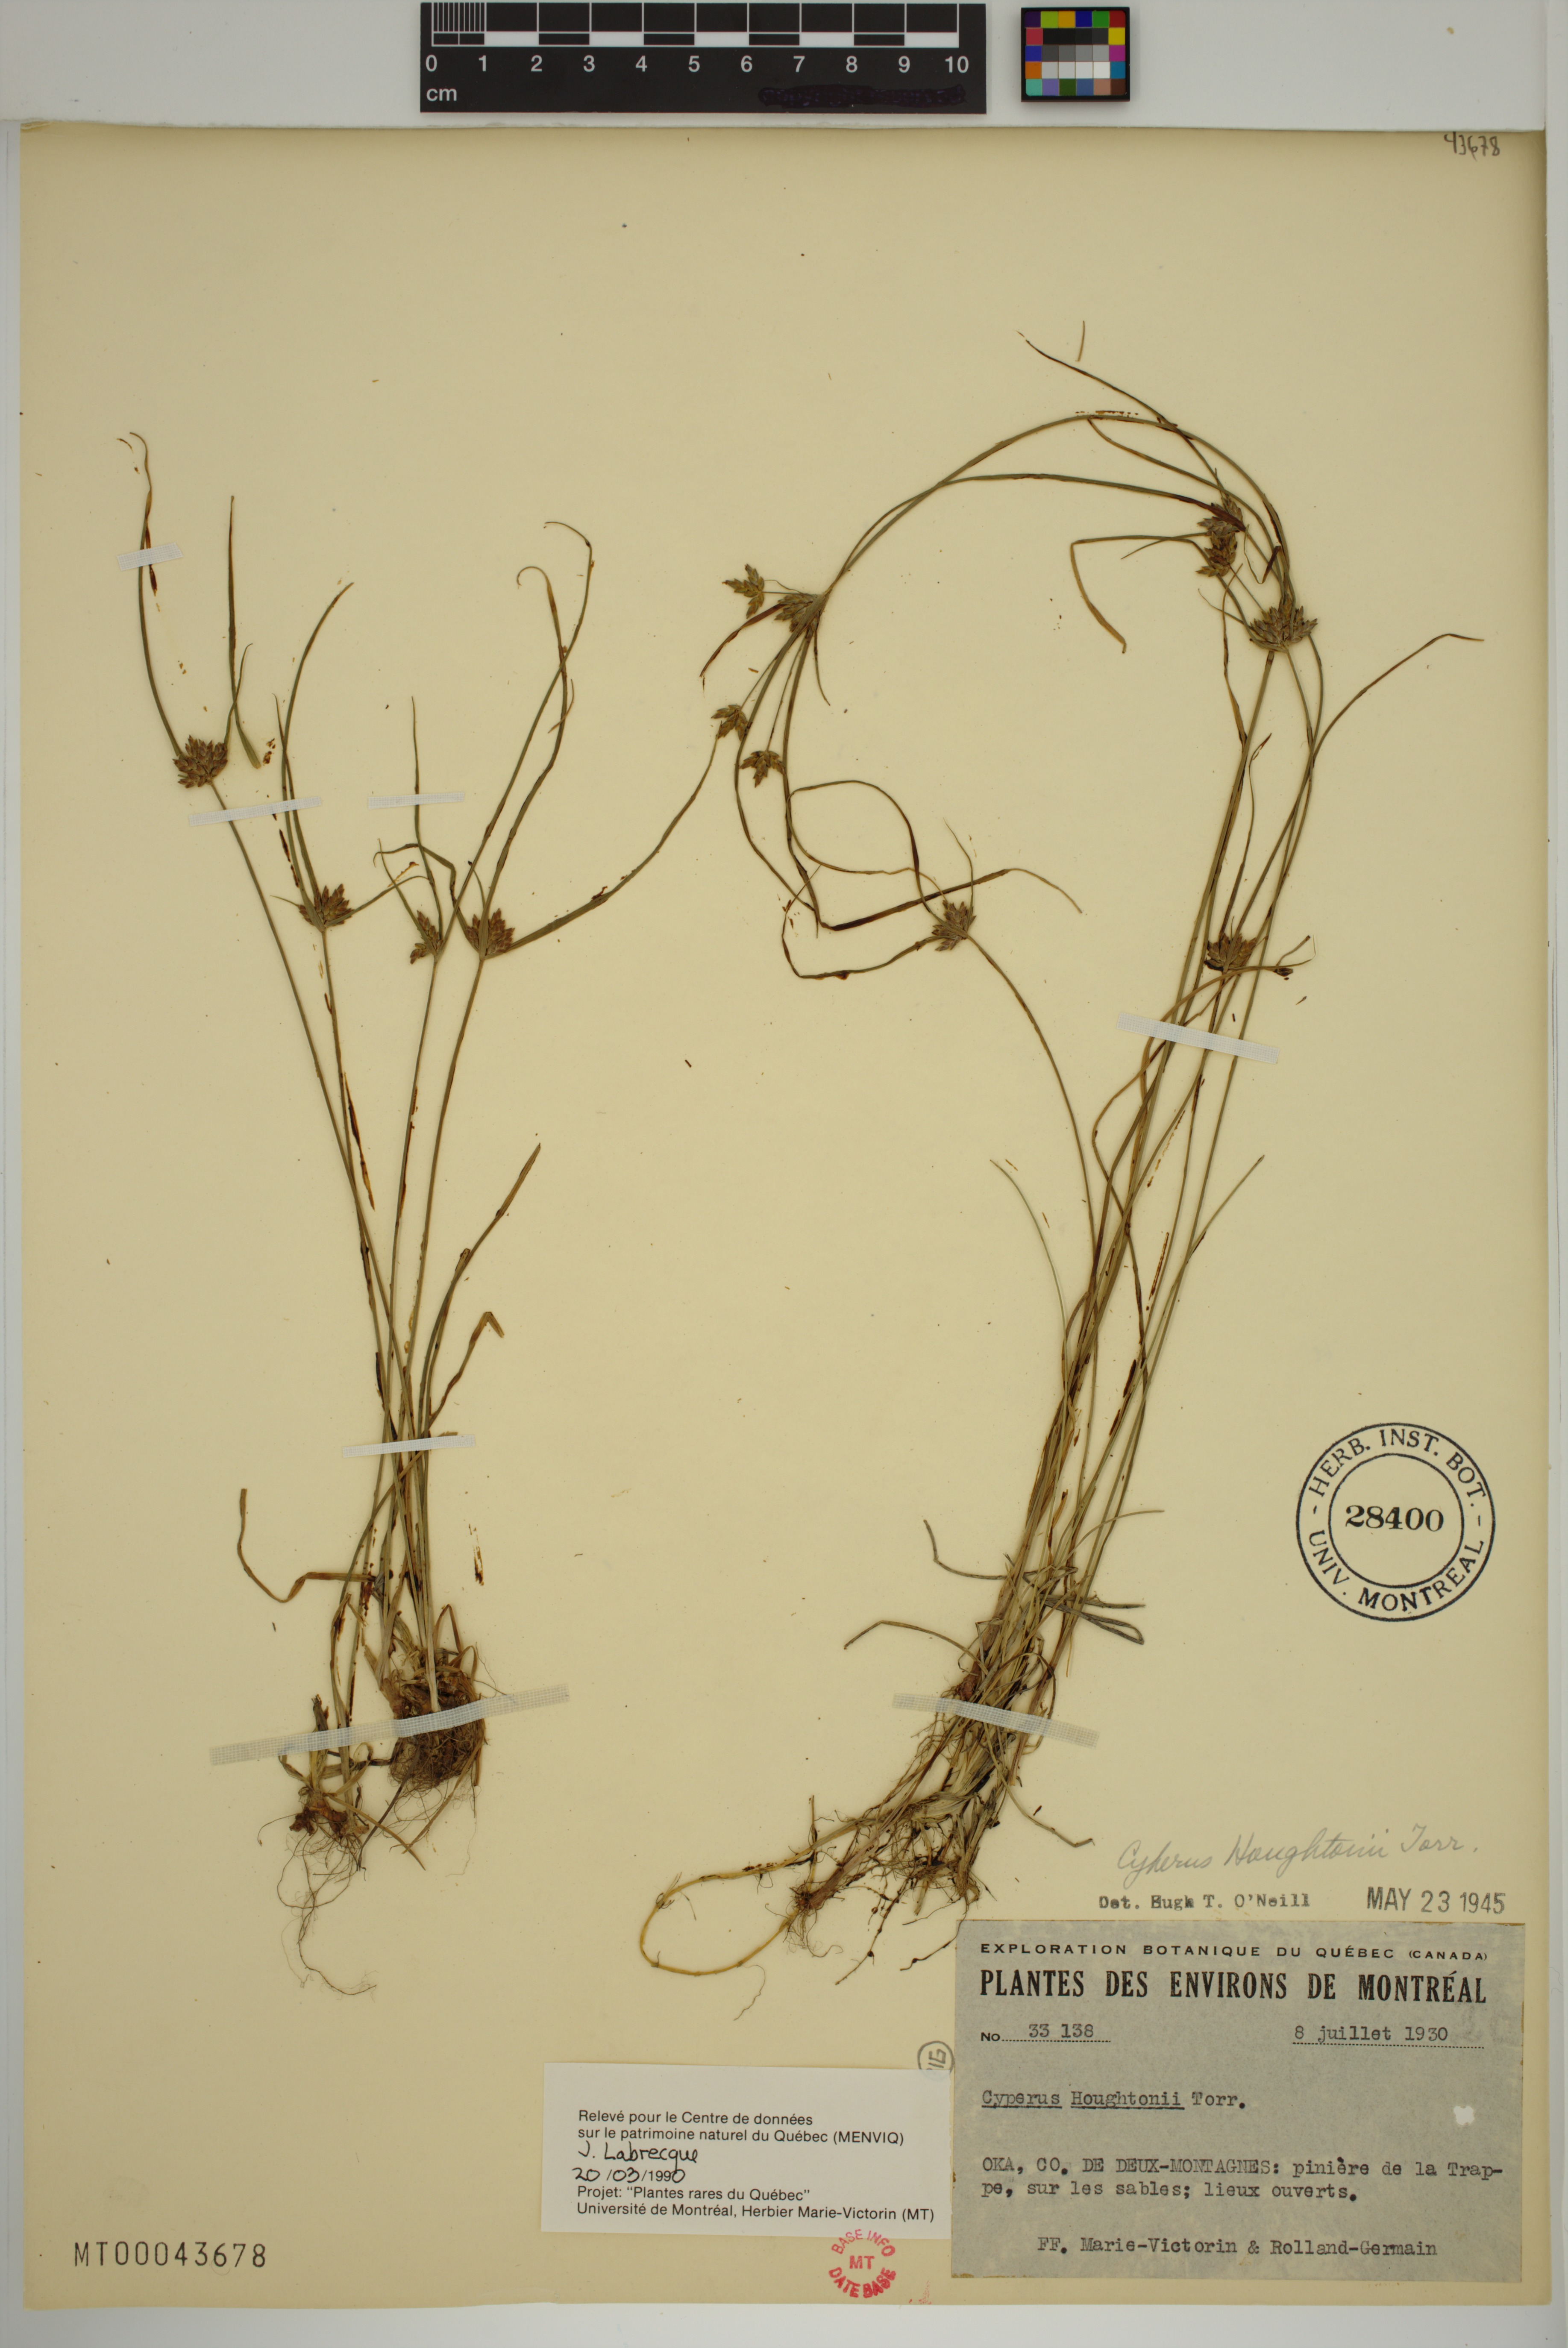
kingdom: Plantae
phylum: Tracheophyta
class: Liliopsida
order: Poales
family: Cyperaceae
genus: Cyperus
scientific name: Cyperus houghtonii
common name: Houghton's cyperus
